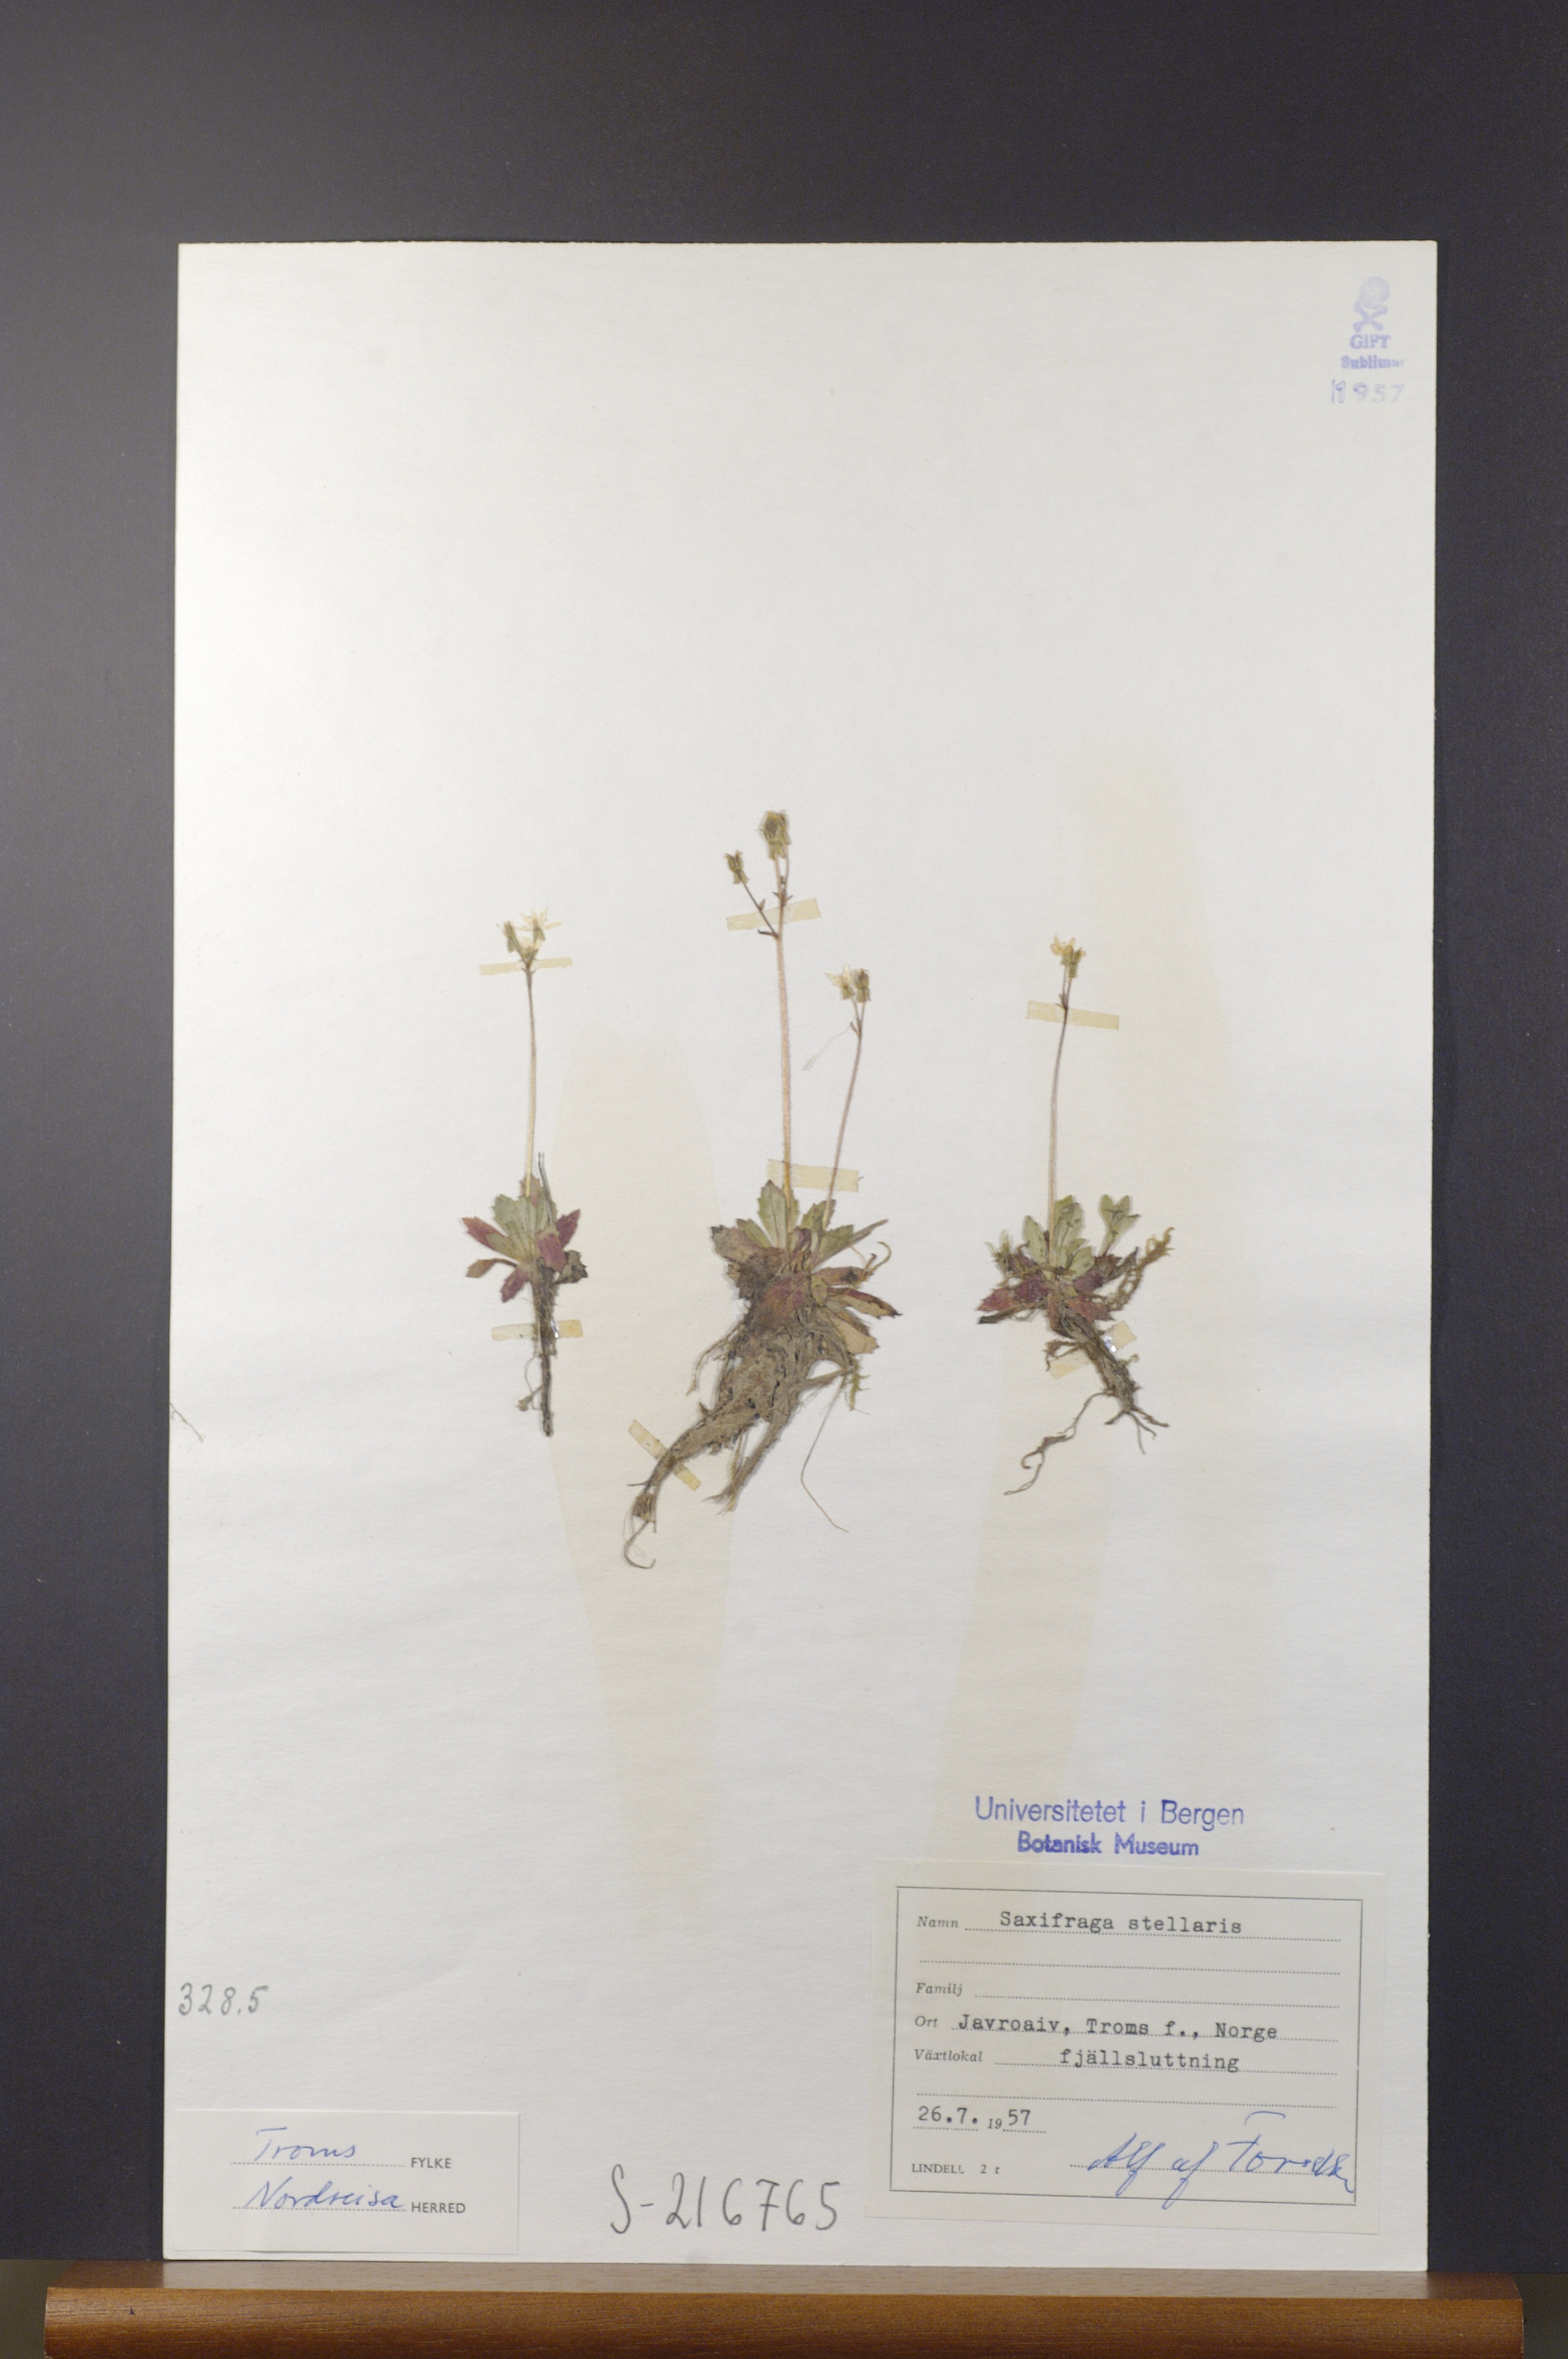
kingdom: Plantae
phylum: Tracheophyta
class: Magnoliopsida
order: Saxifragales
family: Saxifragaceae
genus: Micranthes
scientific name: Micranthes stellaris
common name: Starry saxifrage
